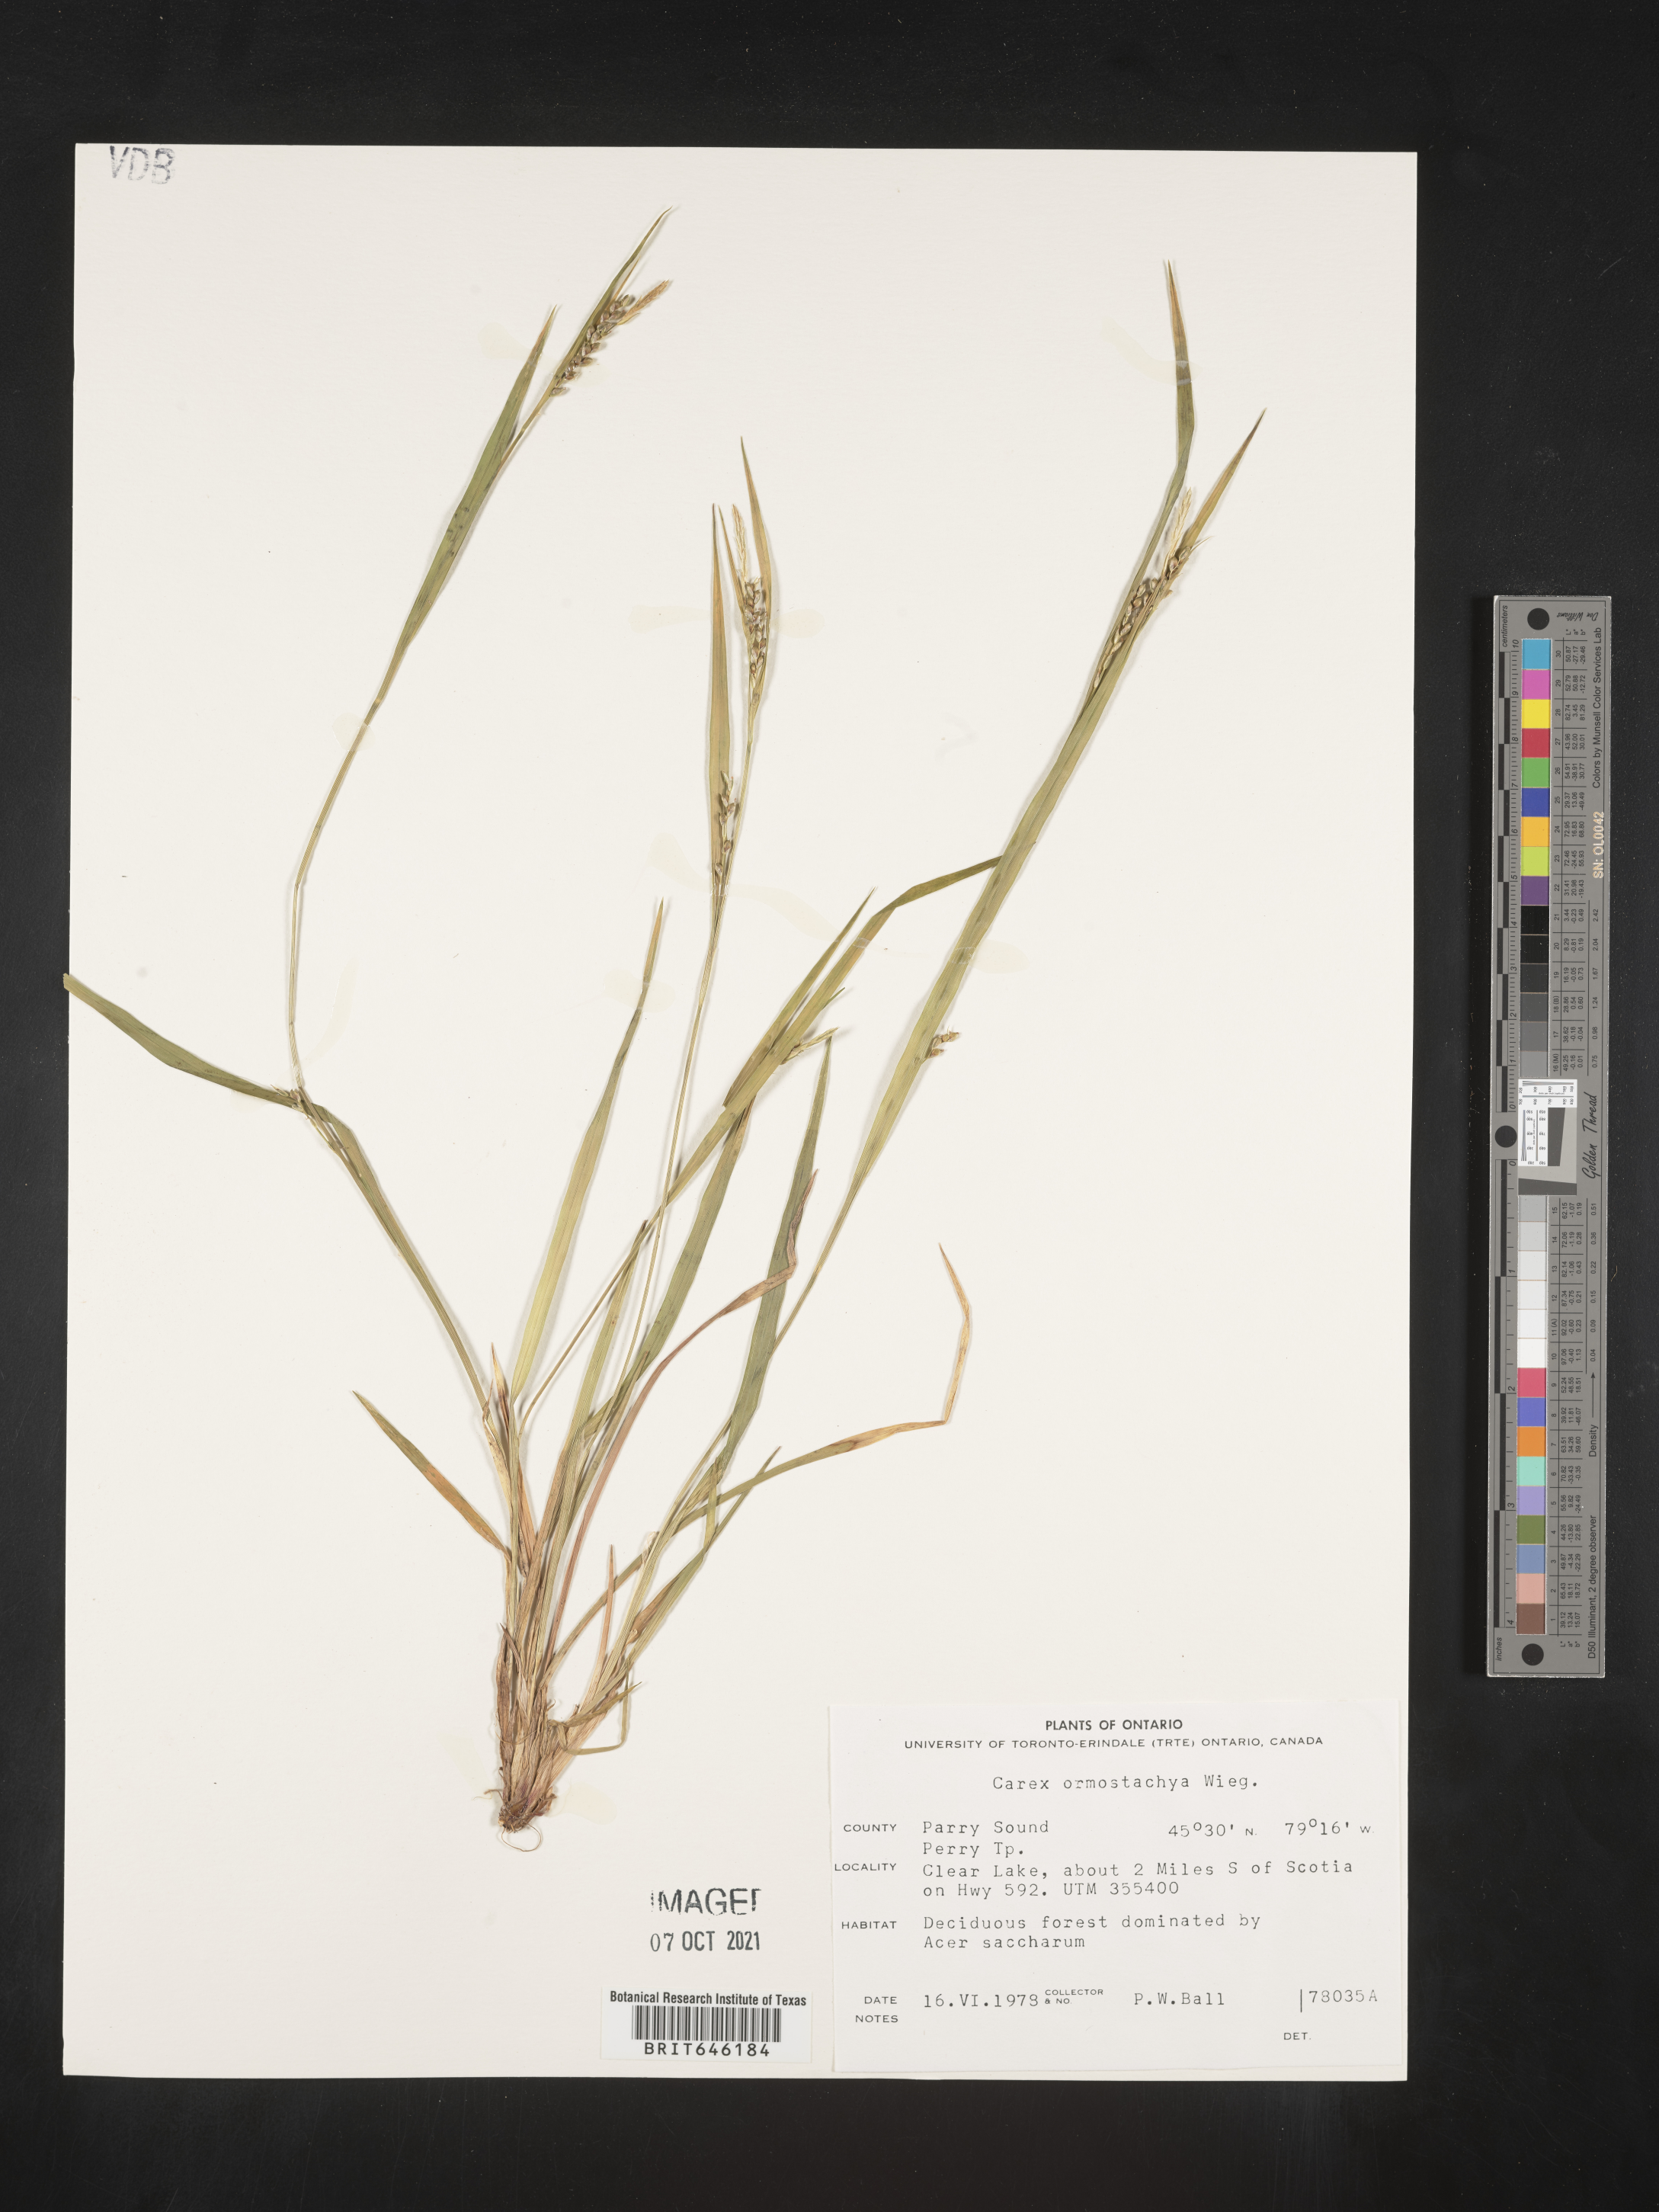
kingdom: Plantae
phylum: Tracheophyta
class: Liliopsida
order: Poales
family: Cyperaceae
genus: Carex
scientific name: Carex ormostachya
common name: Necklace spike sedge
